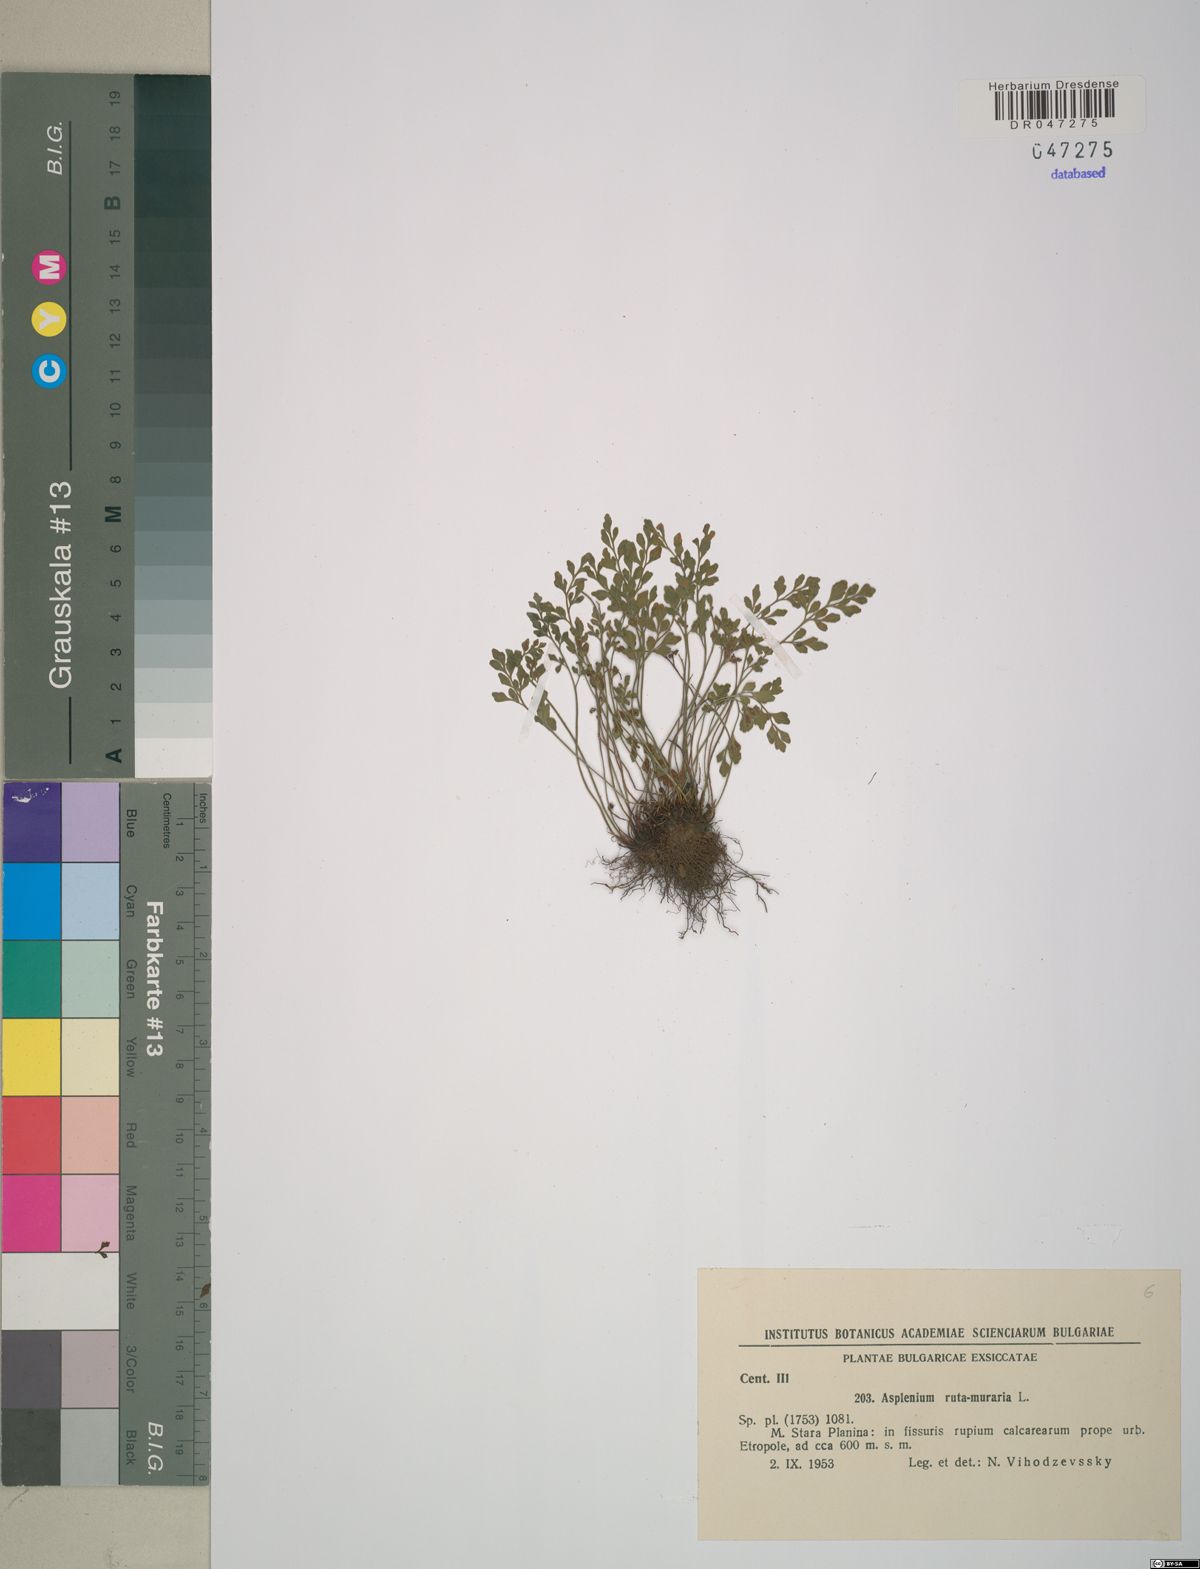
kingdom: Plantae
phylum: Tracheophyta
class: Polypodiopsida
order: Polypodiales
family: Aspleniaceae
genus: Asplenium
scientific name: Asplenium ruta-muraria
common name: Wall-rue
